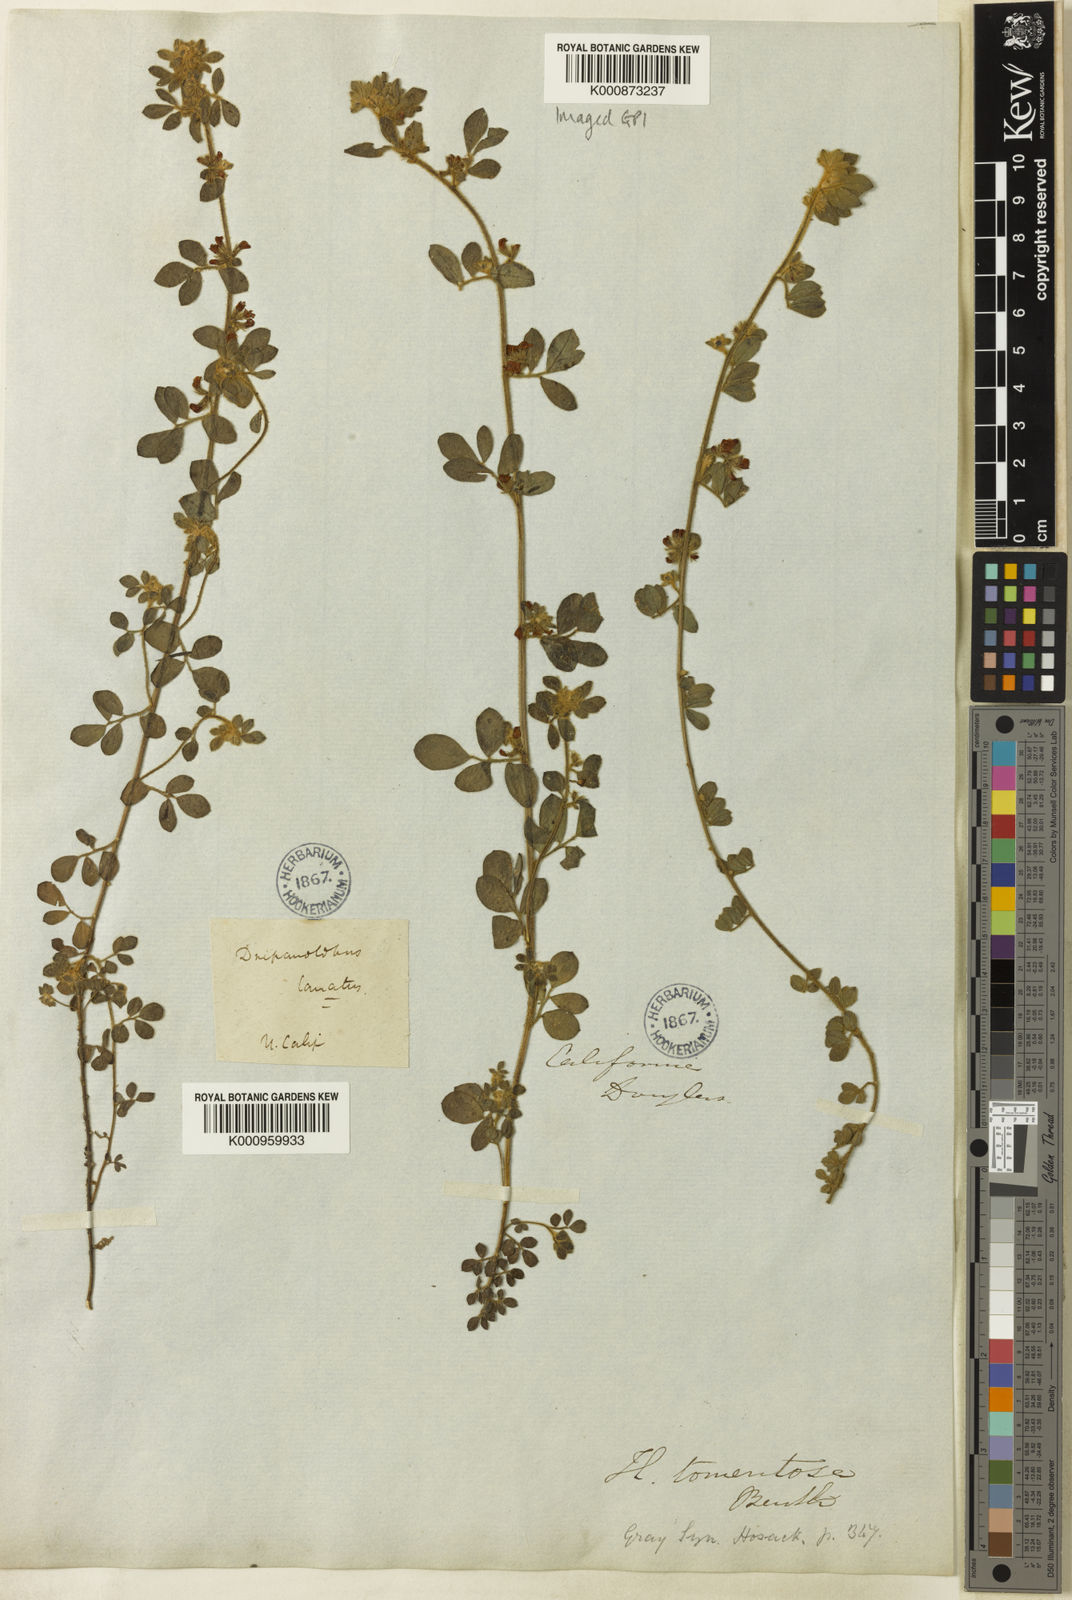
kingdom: Plantae
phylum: Tracheophyta
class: Magnoliopsida
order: Fabales
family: Fabaceae
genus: Acmispon
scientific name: Acmispon tomentosus
